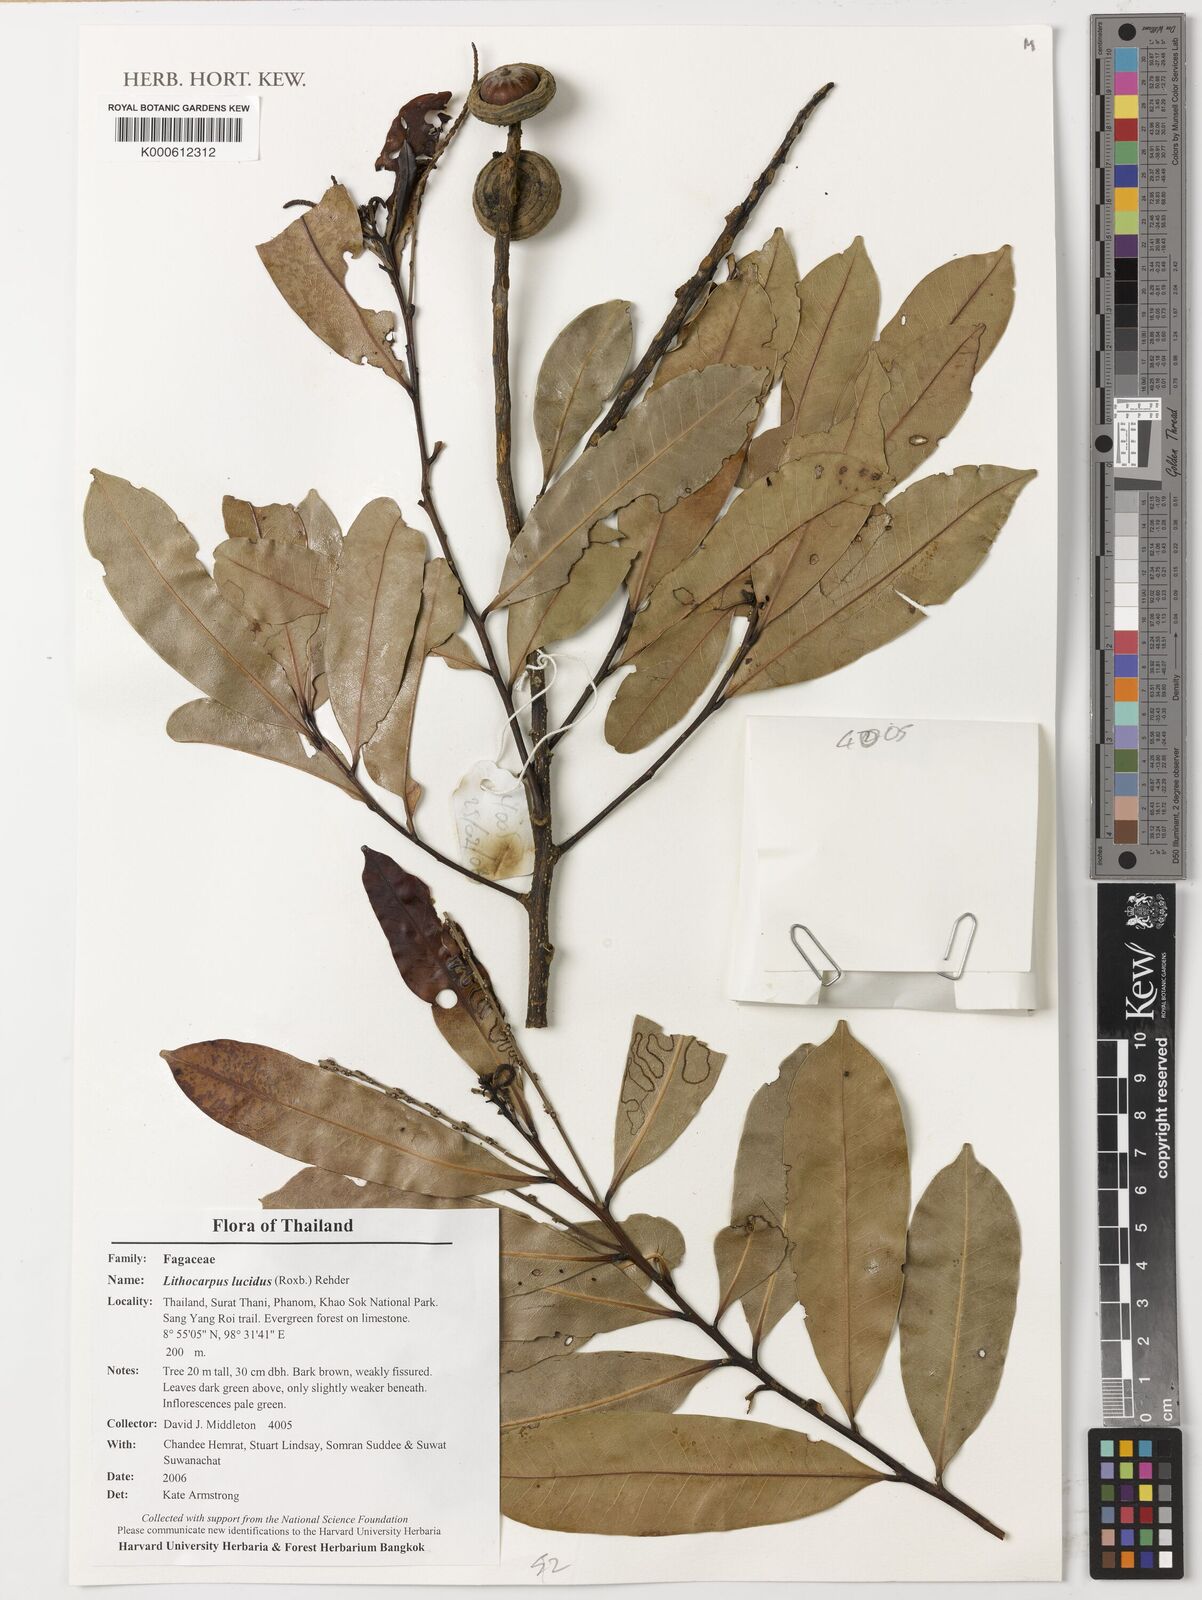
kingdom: Plantae
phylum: Tracheophyta
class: Magnoliopsida
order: Fagales
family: Fagaceae
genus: Lithocarpus
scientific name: Lithocarpus lucidus
